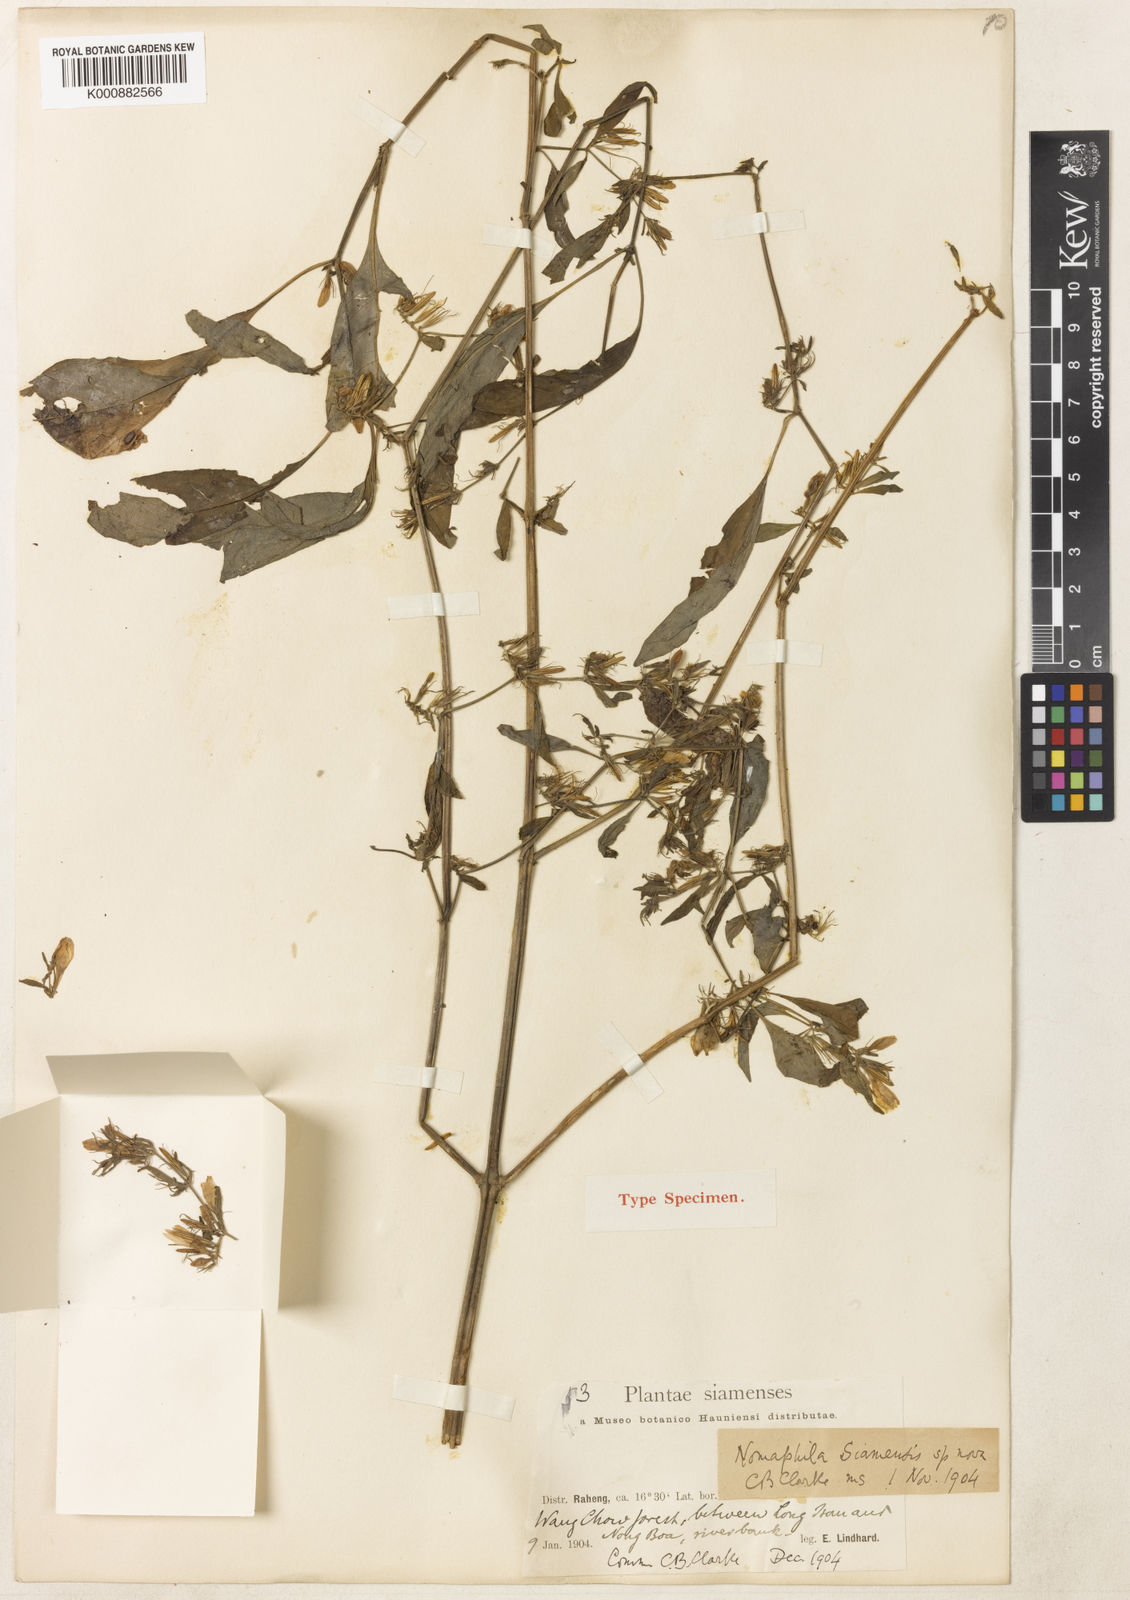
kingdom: Plantae
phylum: Tracheophyta
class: Magnoliopsida
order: Lamiales
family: Acanthaceae
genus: Hygrophila
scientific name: Hygrophila corymbosa
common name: Starhorn
